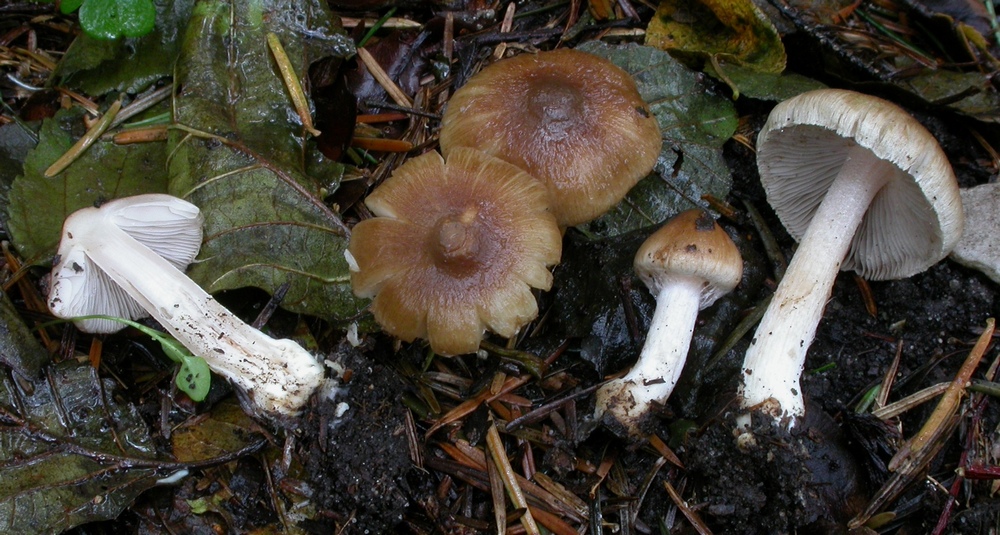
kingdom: Fungi
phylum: Basidiomycota
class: Agaricomycetes
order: Agaricales
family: Inocybaceae
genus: Inocybe
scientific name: Inocybe
